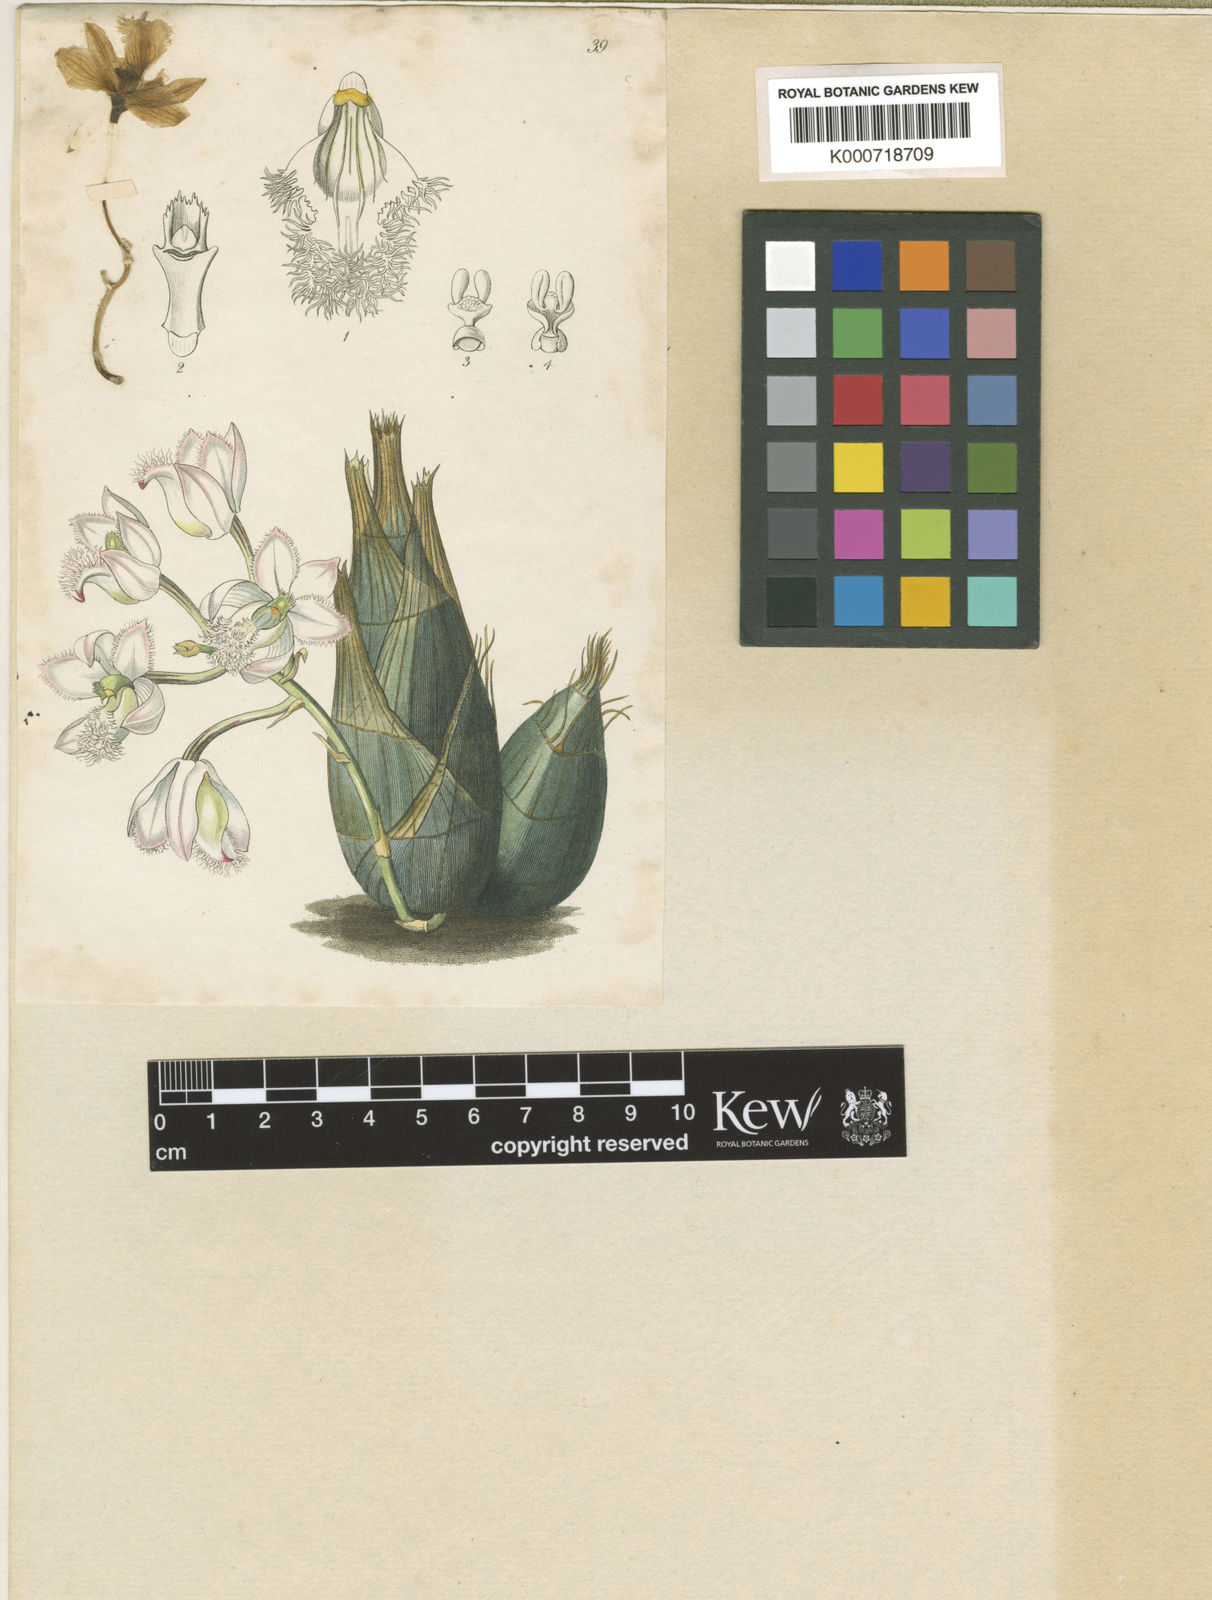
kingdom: Plantae
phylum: Tracheophyta
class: Liliopsida
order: Asparagales
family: Orchidaceae
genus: Clowesia
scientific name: Clowesia rosea
